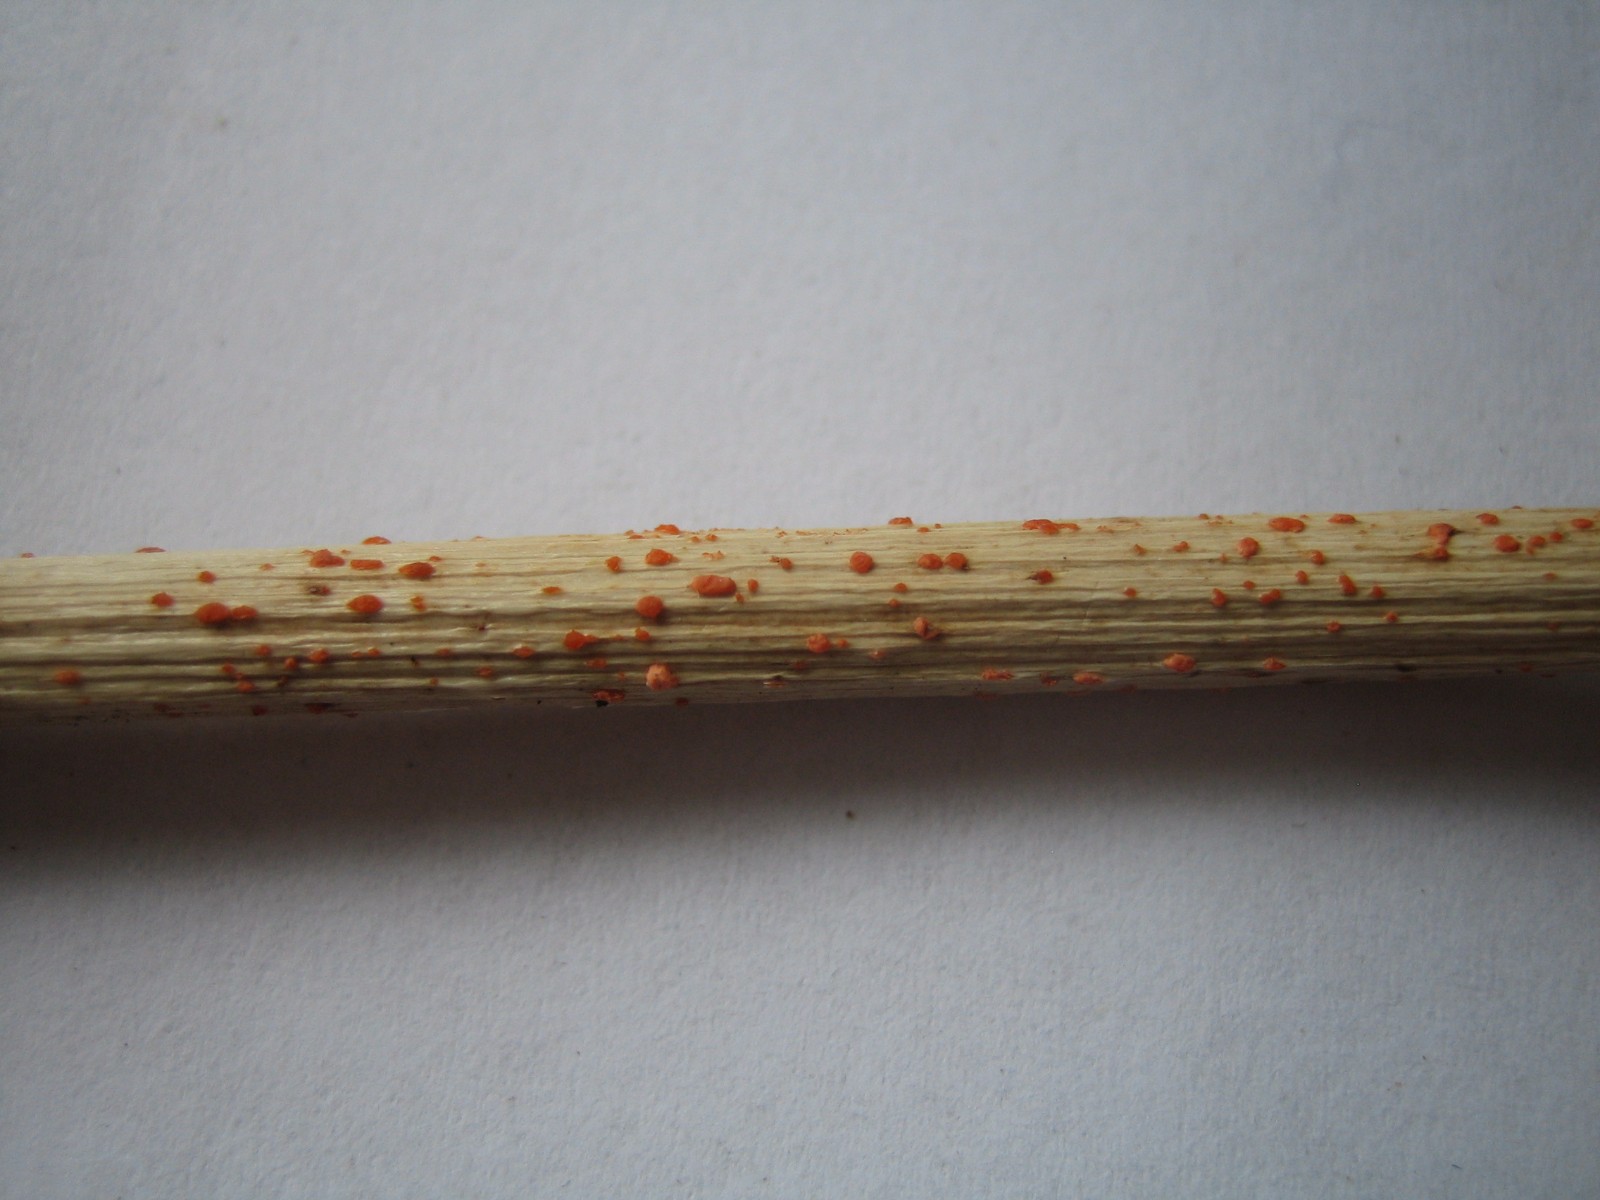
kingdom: Fungi
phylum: Ascomycota
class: Leotiomycetes
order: Helotiales
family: Calloriaceae
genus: Calloria
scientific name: Calloria urticae
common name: nælde-orangeskive
